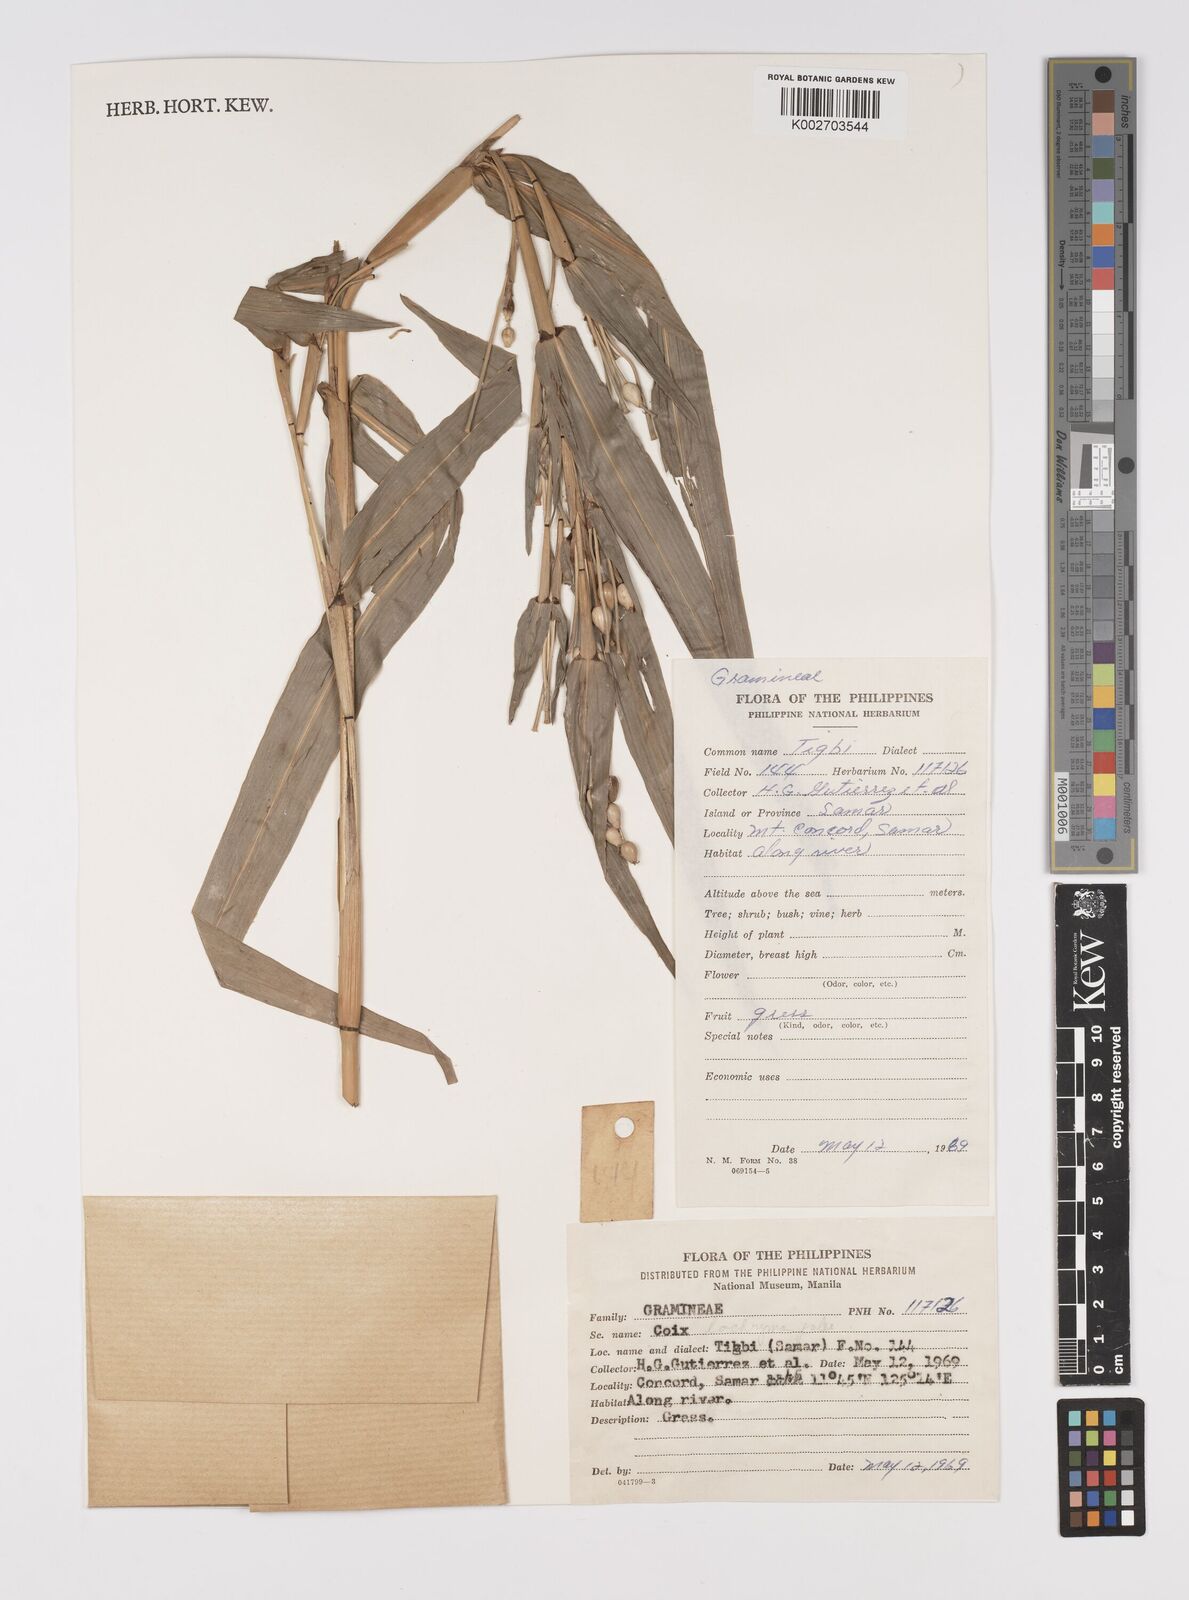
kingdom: Plantae
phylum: Tracheophyta
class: Liliopsida
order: Poales
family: Poaceae
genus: Coix
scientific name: Coix lacryma-jobi
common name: Job's tears
